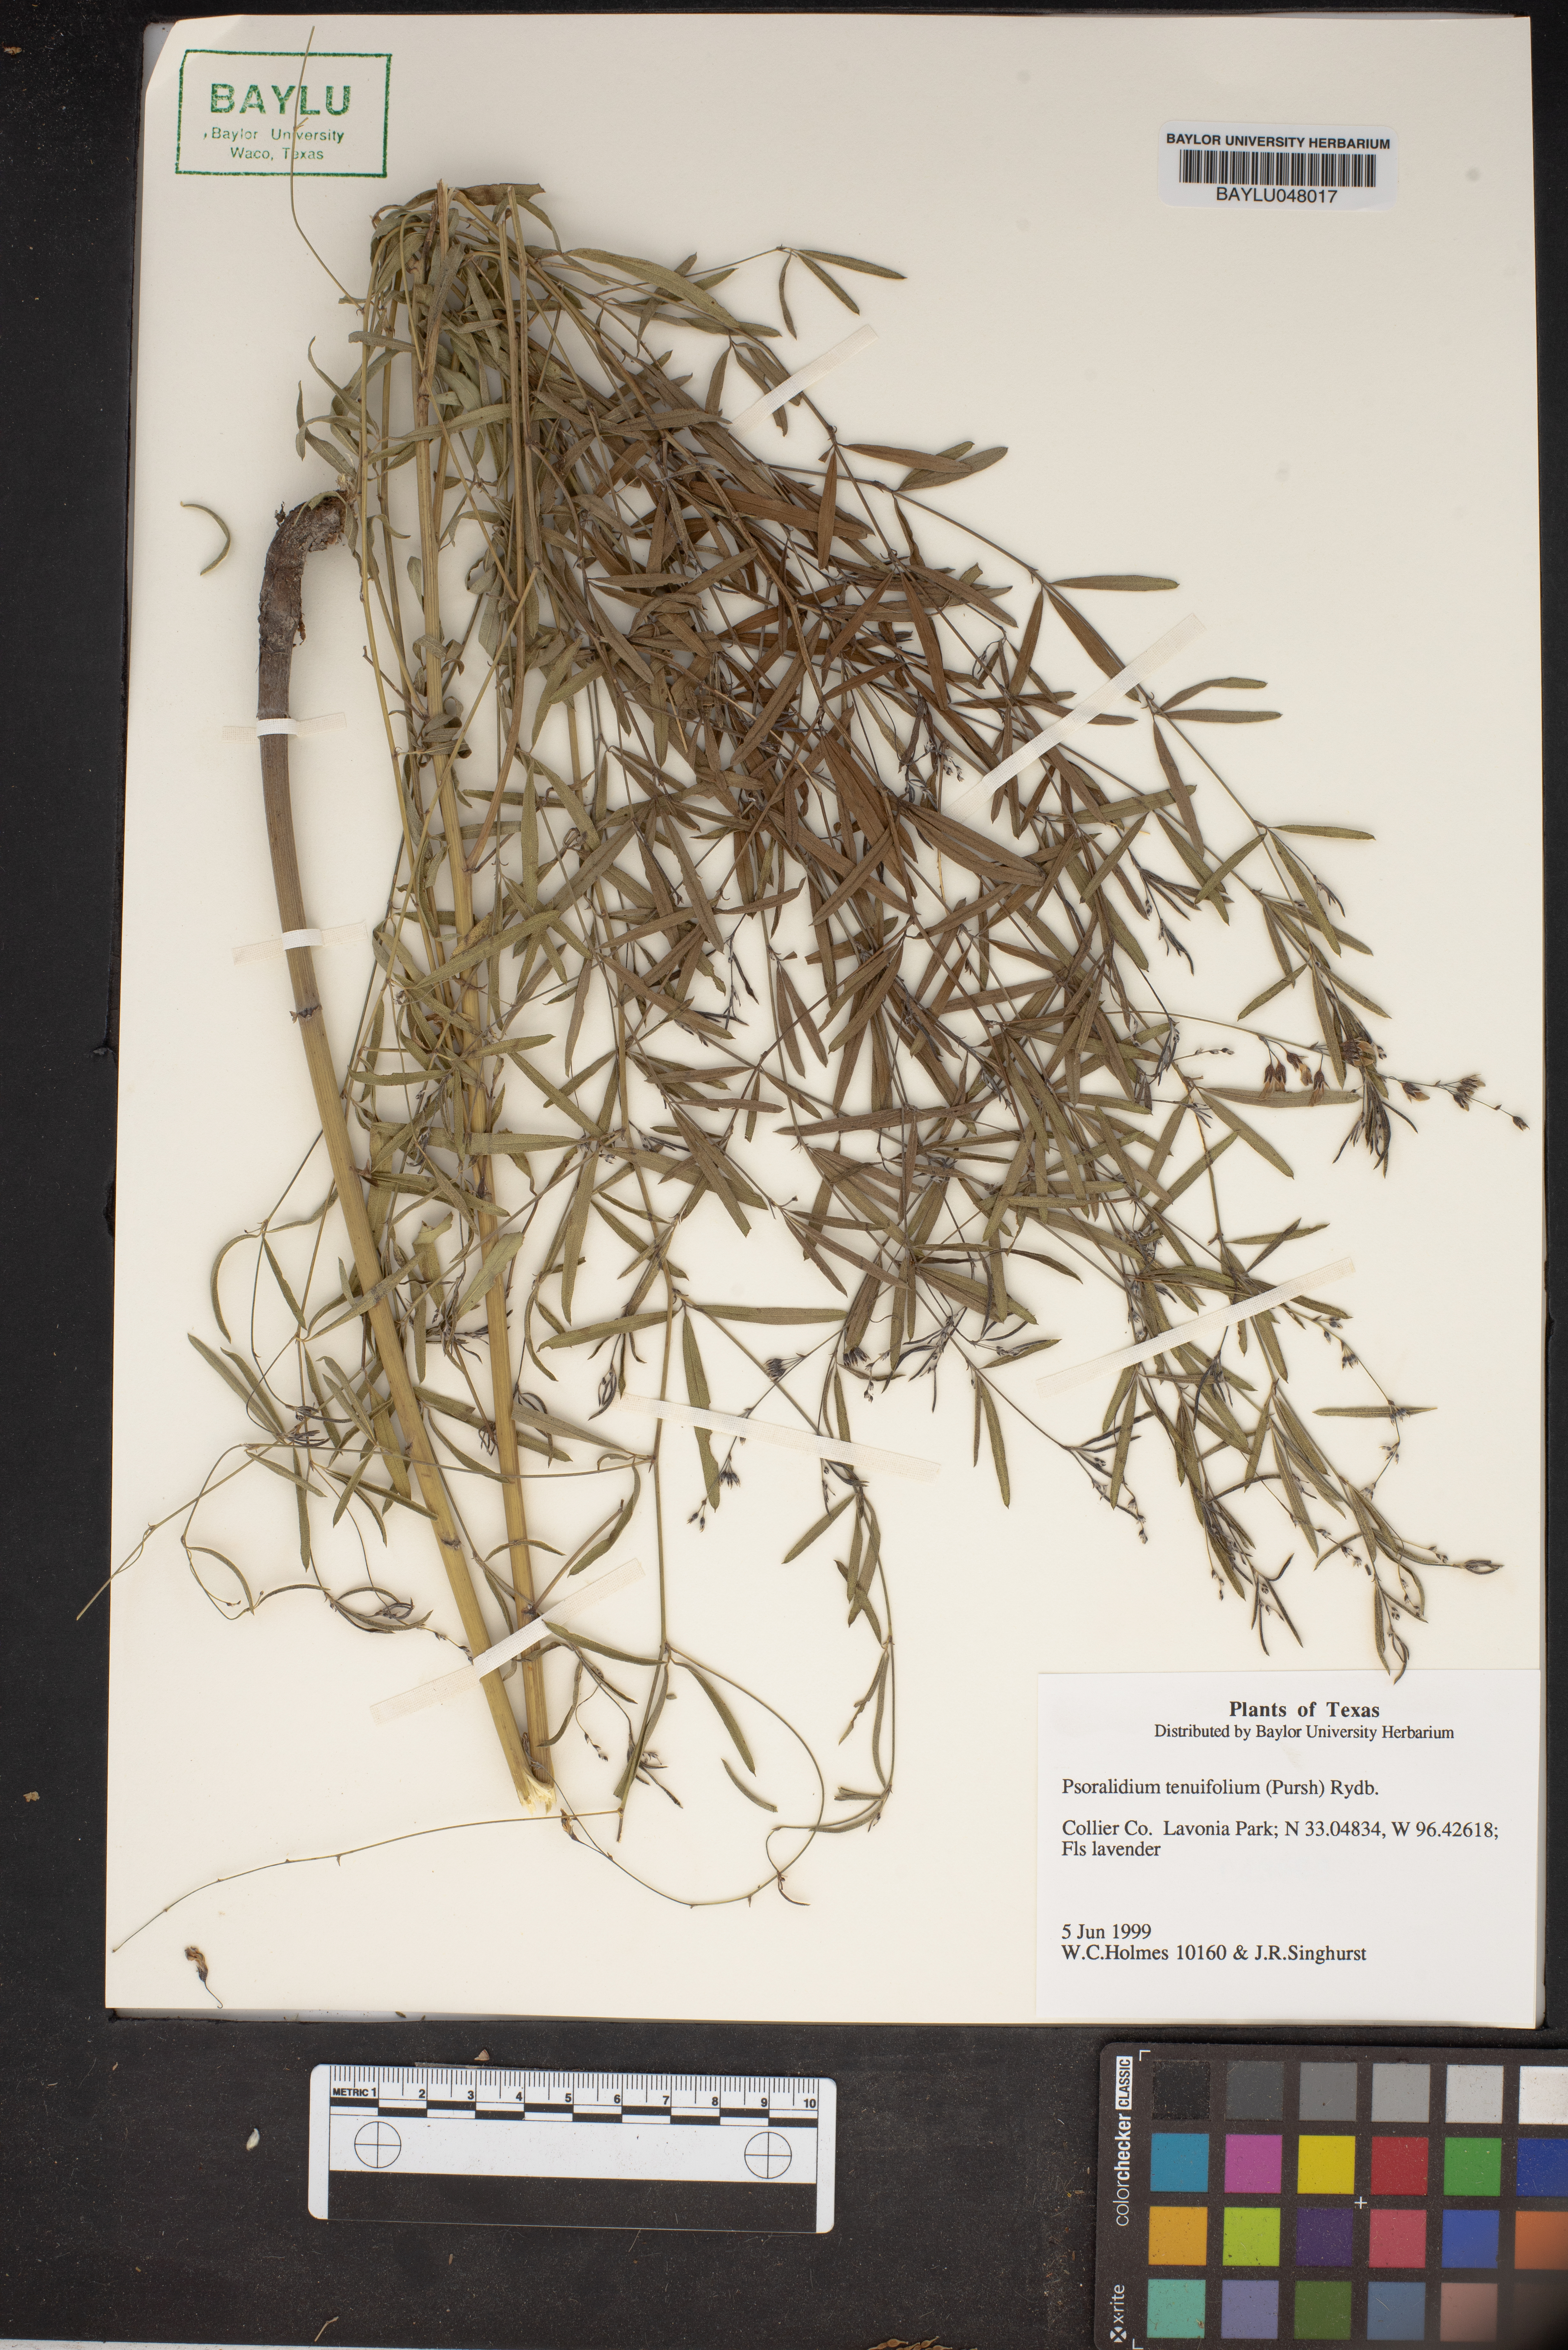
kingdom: Plantae
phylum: Tracheophyta
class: Magnoliopsida
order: Fabales
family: Fabaceae
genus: Pediomelum
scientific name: Pediomelum tenuiflorum
